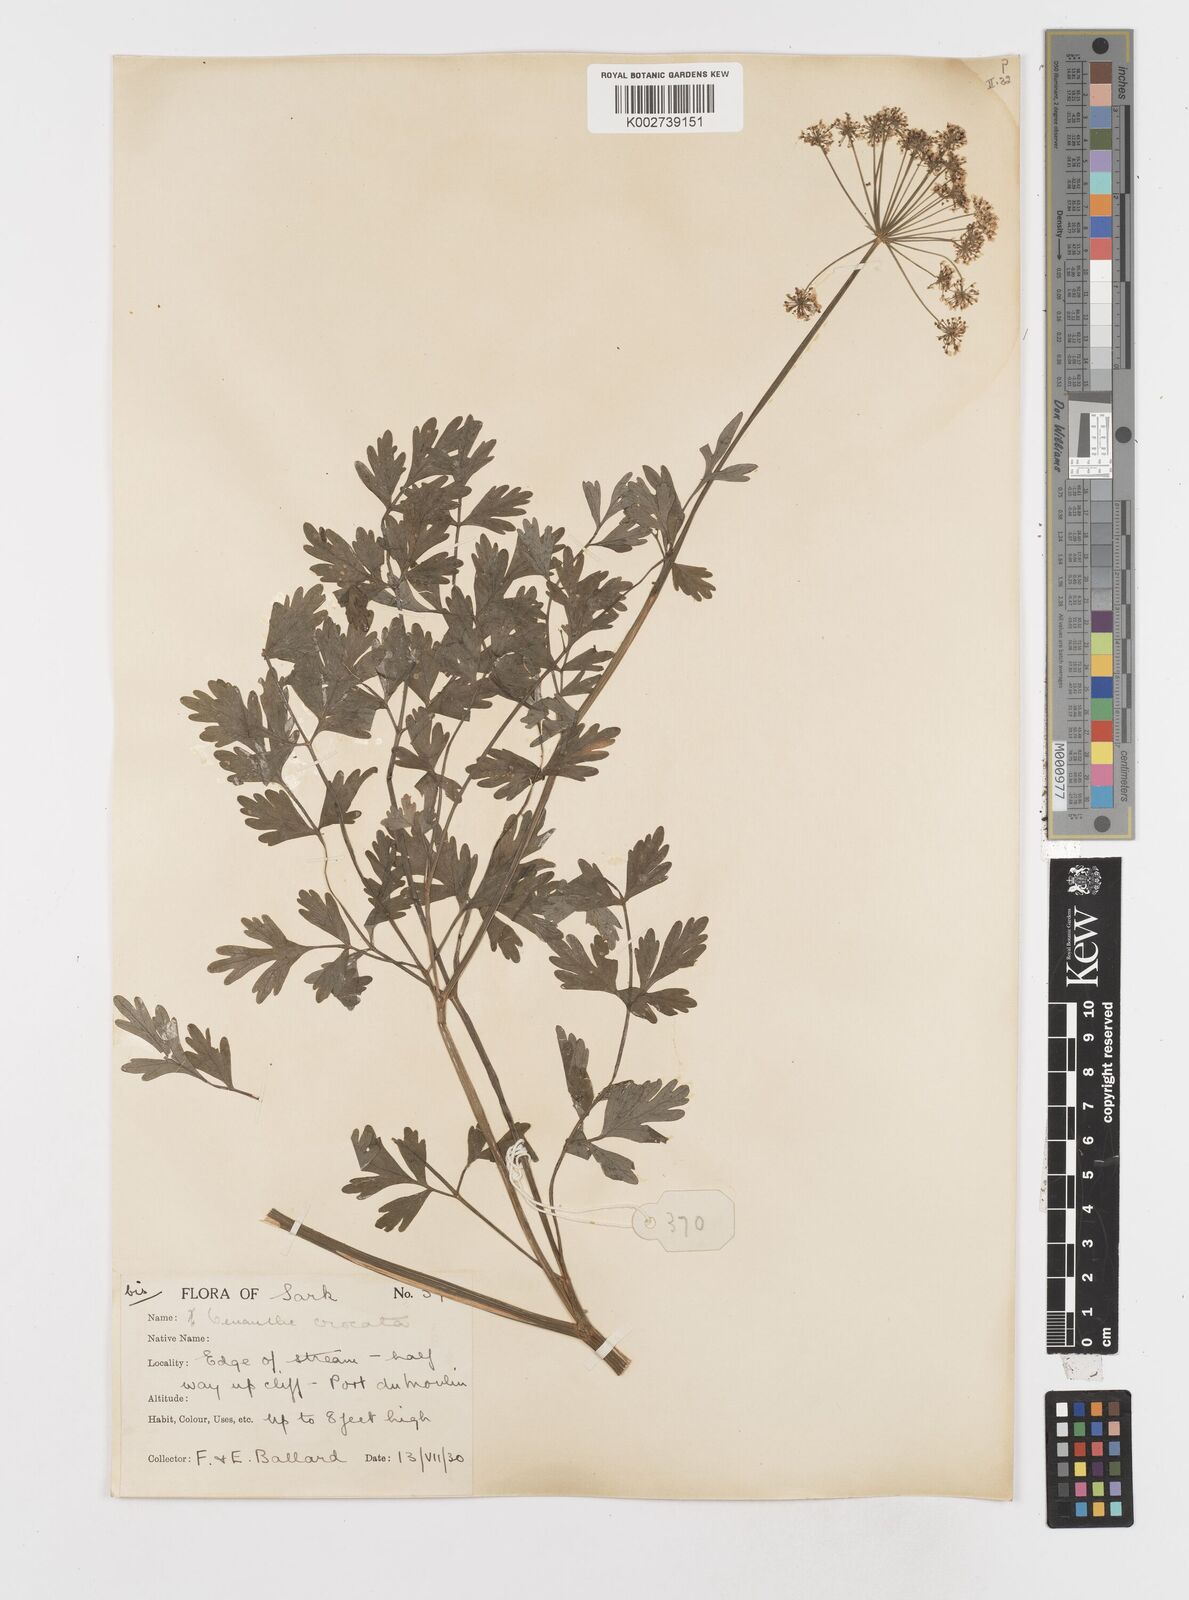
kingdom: Plantae
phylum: Tracheophyta
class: Magnoliopsida
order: Apiales
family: Apiaceae
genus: Oenanthe
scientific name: Oenanthe crocata
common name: Hemlock water-dropwort
